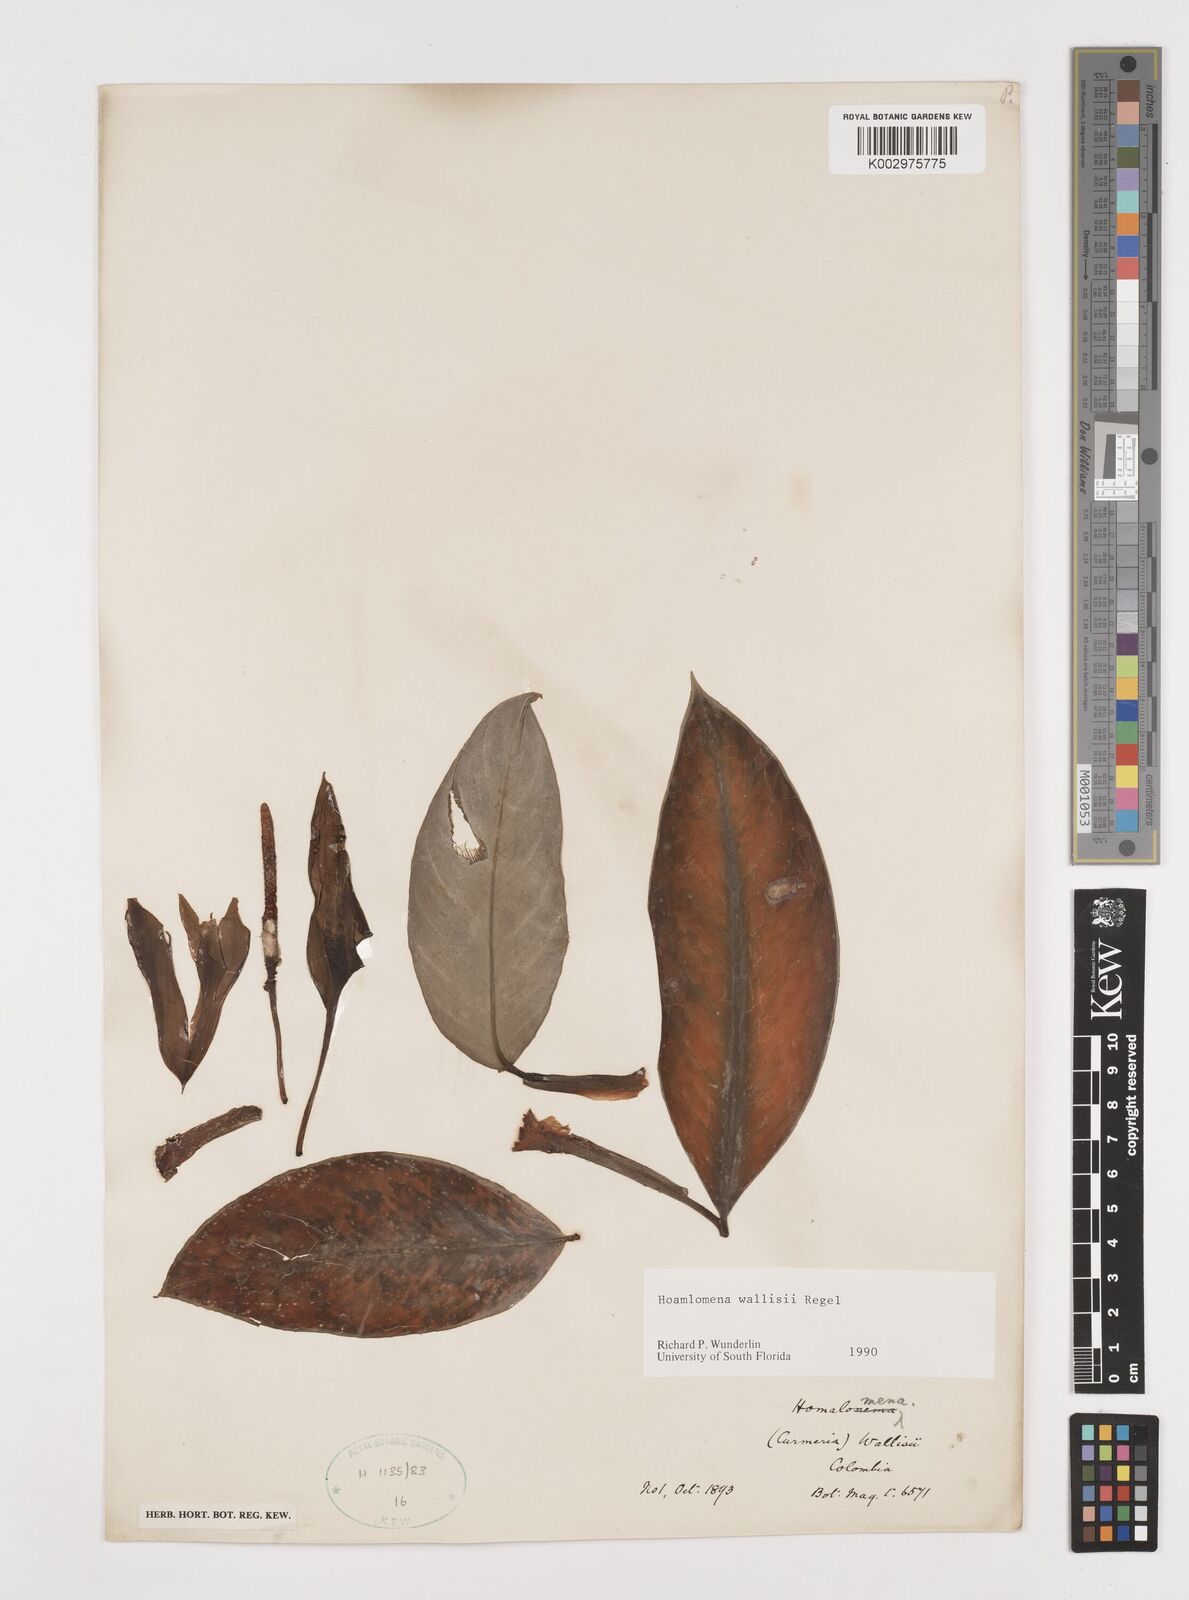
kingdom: Plantae
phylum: Tracheophyta
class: Liliopsida
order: Alismatales
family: Araceae
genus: Adelonema
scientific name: Adelonema wallisii
